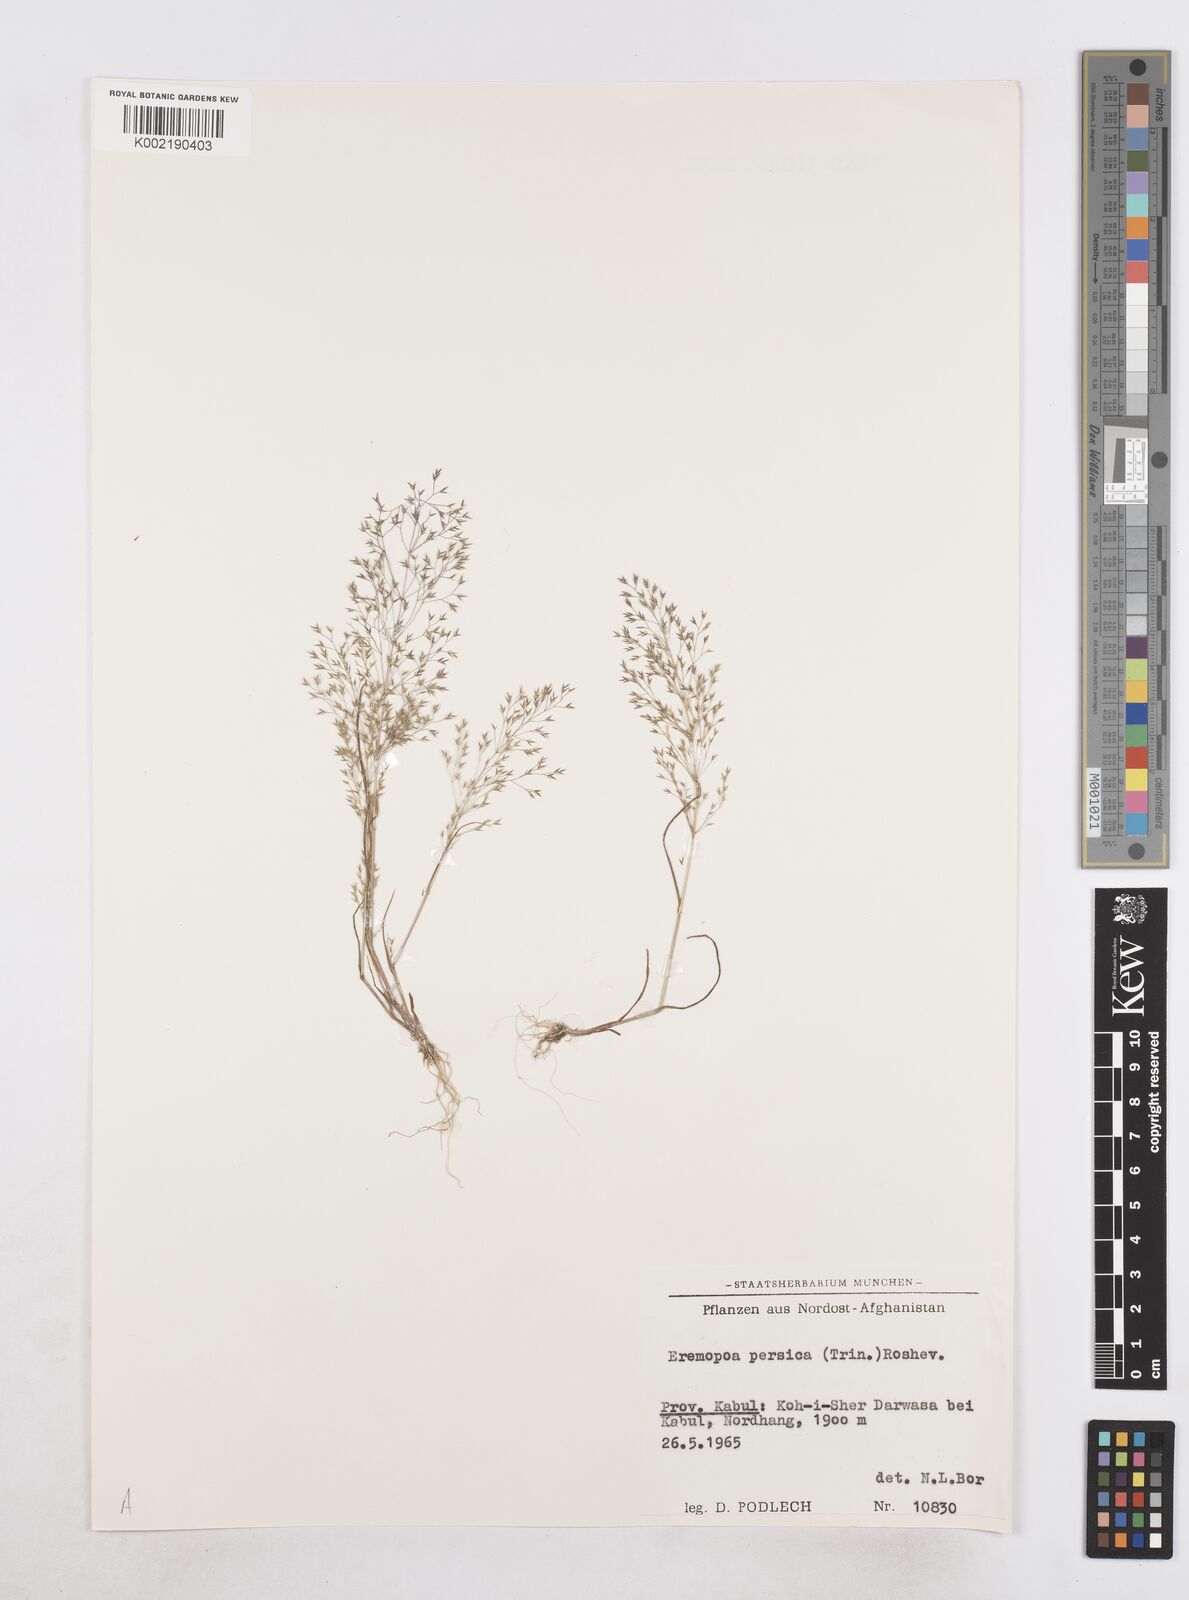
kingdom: Plantae
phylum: Tracheophyta
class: Liliopsida
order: Poales
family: Poaceae
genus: Poa
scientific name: Poa diaphora
